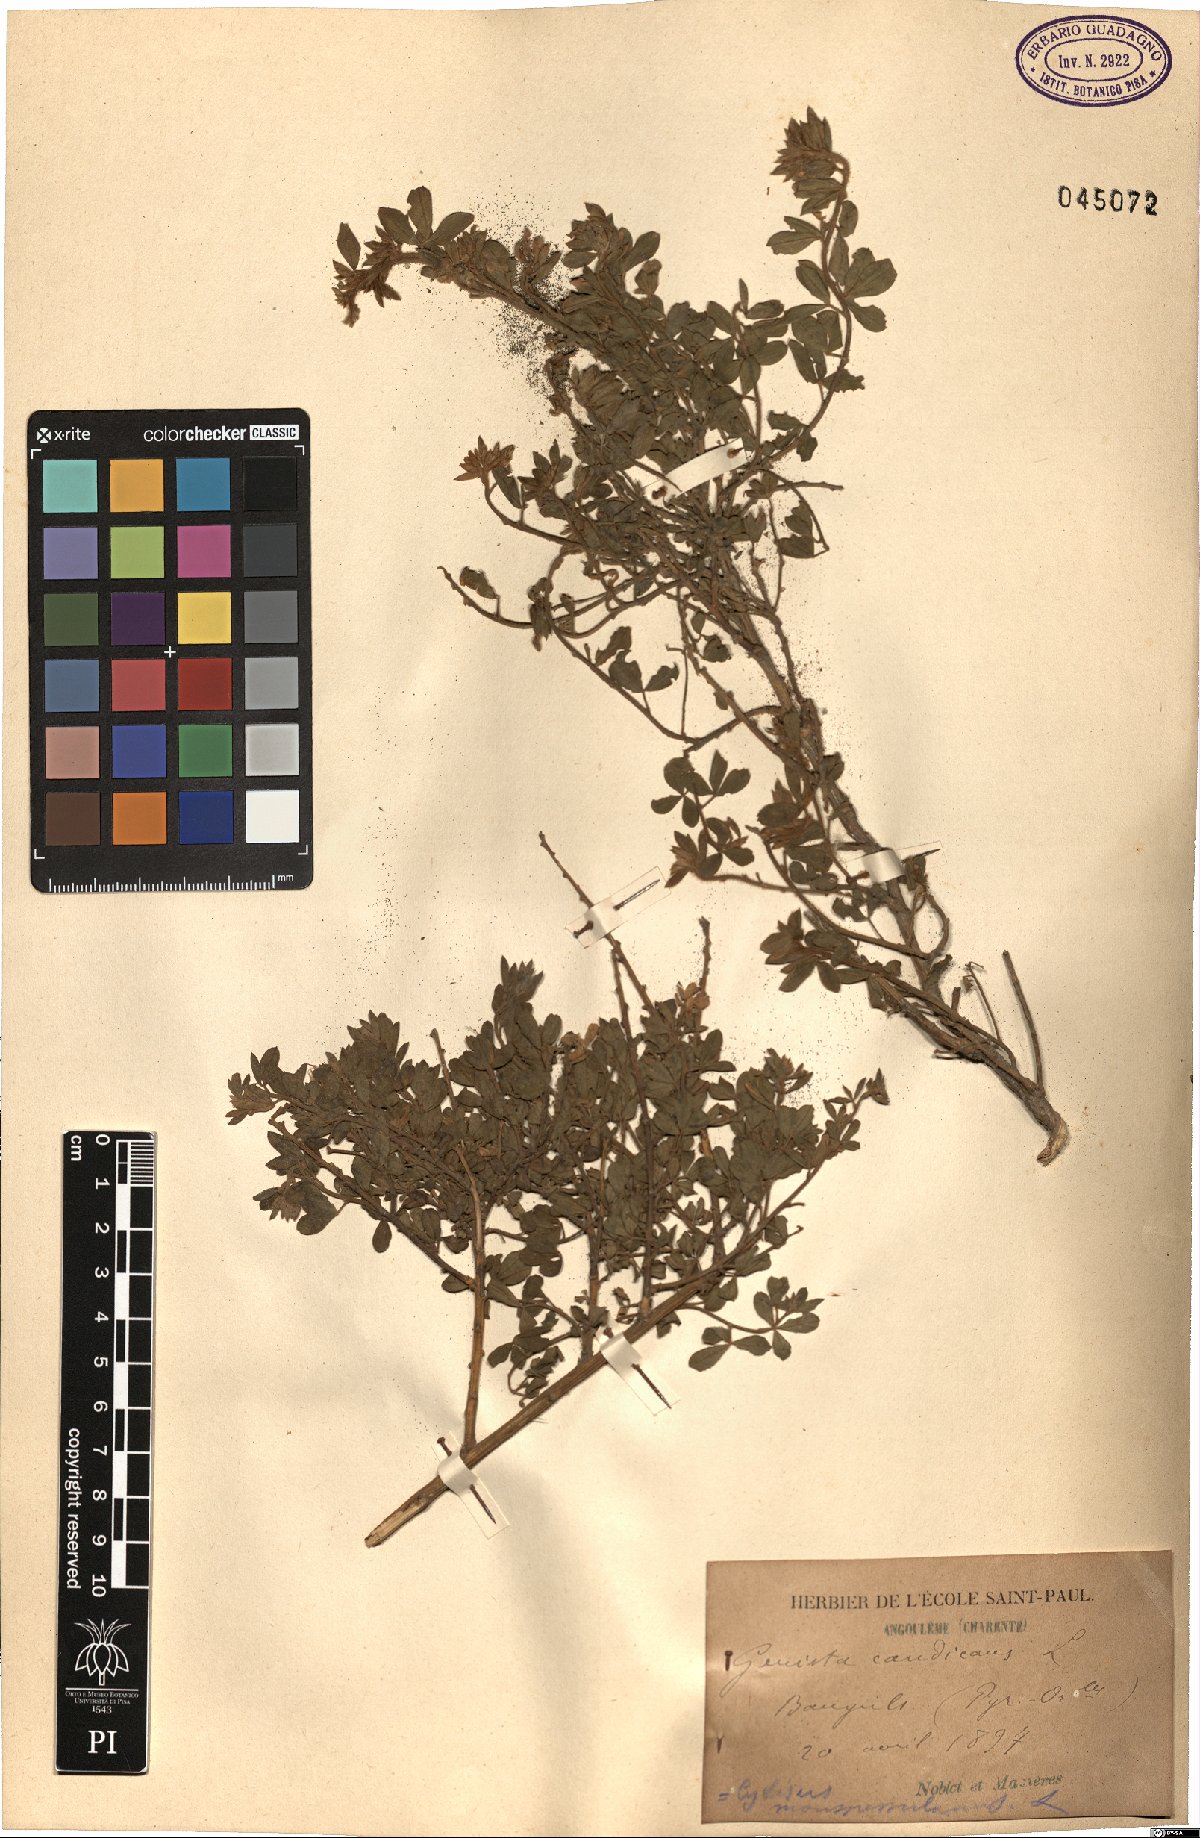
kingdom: Plantae
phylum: Tracheophyta
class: Magnoliopsida
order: Fabales
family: Fabaceae
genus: Genista
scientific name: Genista monspessulana
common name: Montpellier broom
